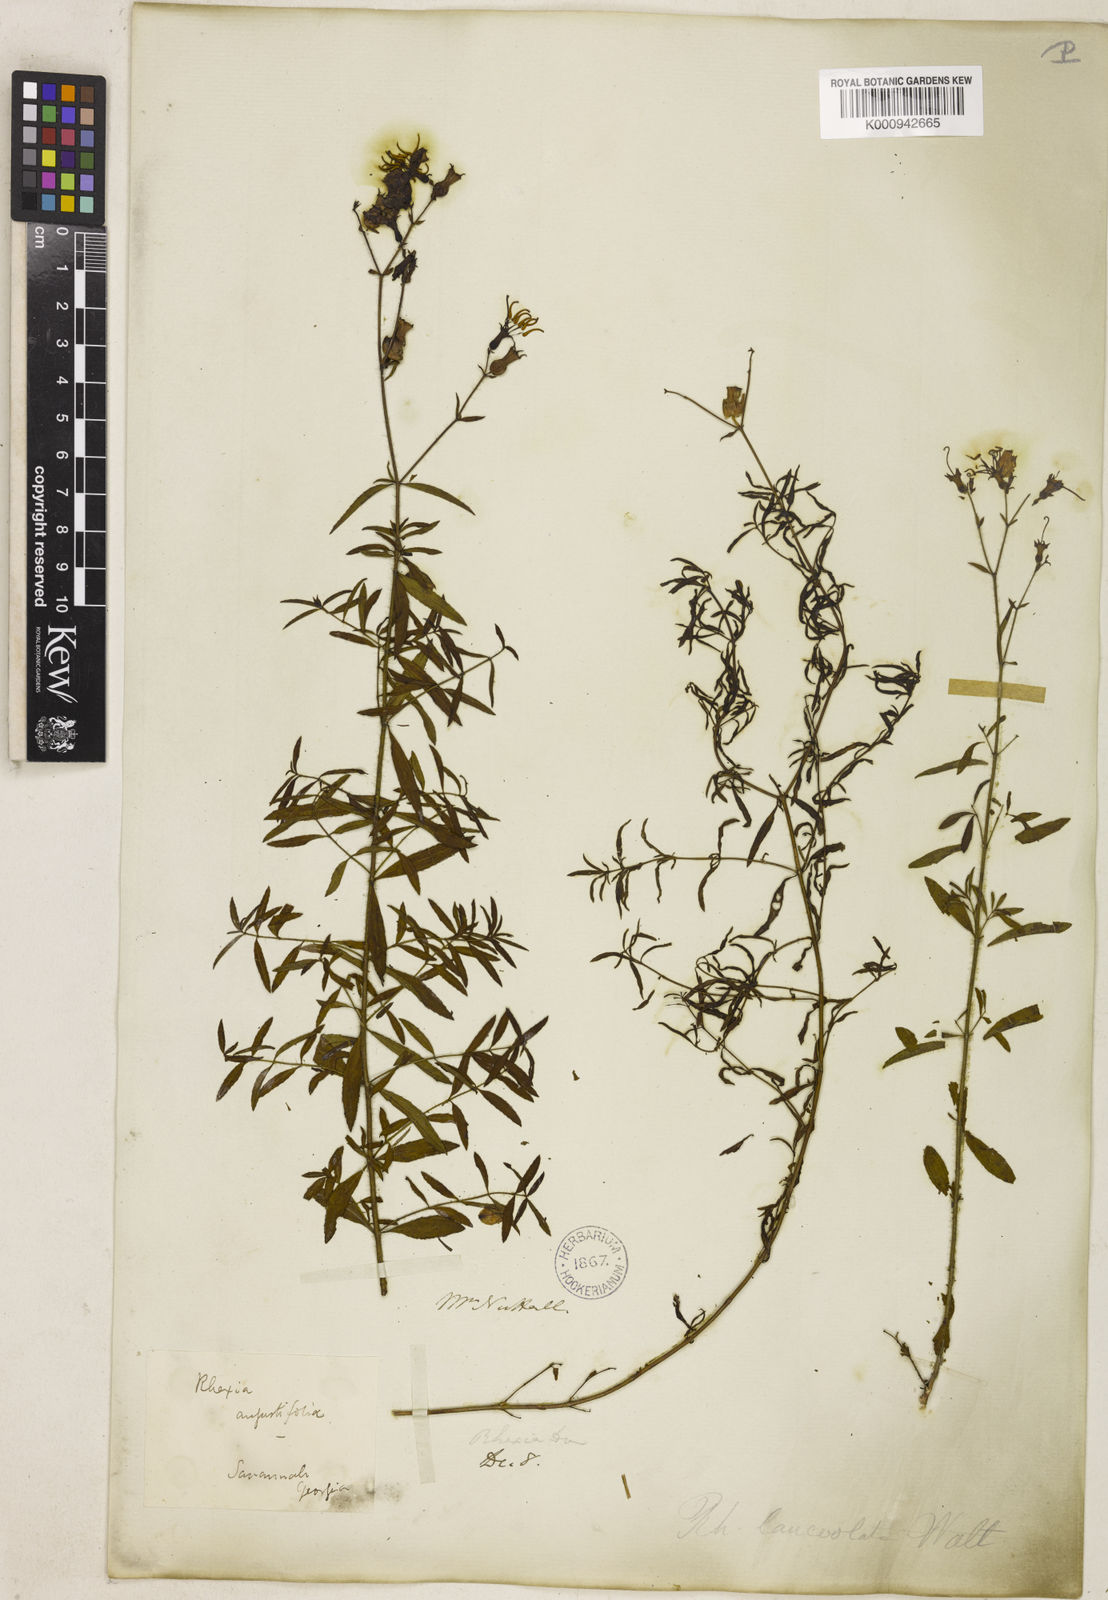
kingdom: Plantae
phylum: Tracheophyta
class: Magnoliopsida
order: Myrtales
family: Melastomataceae
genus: Rhexia
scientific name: Rhexia mariana
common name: Dull meadow-pitcher
